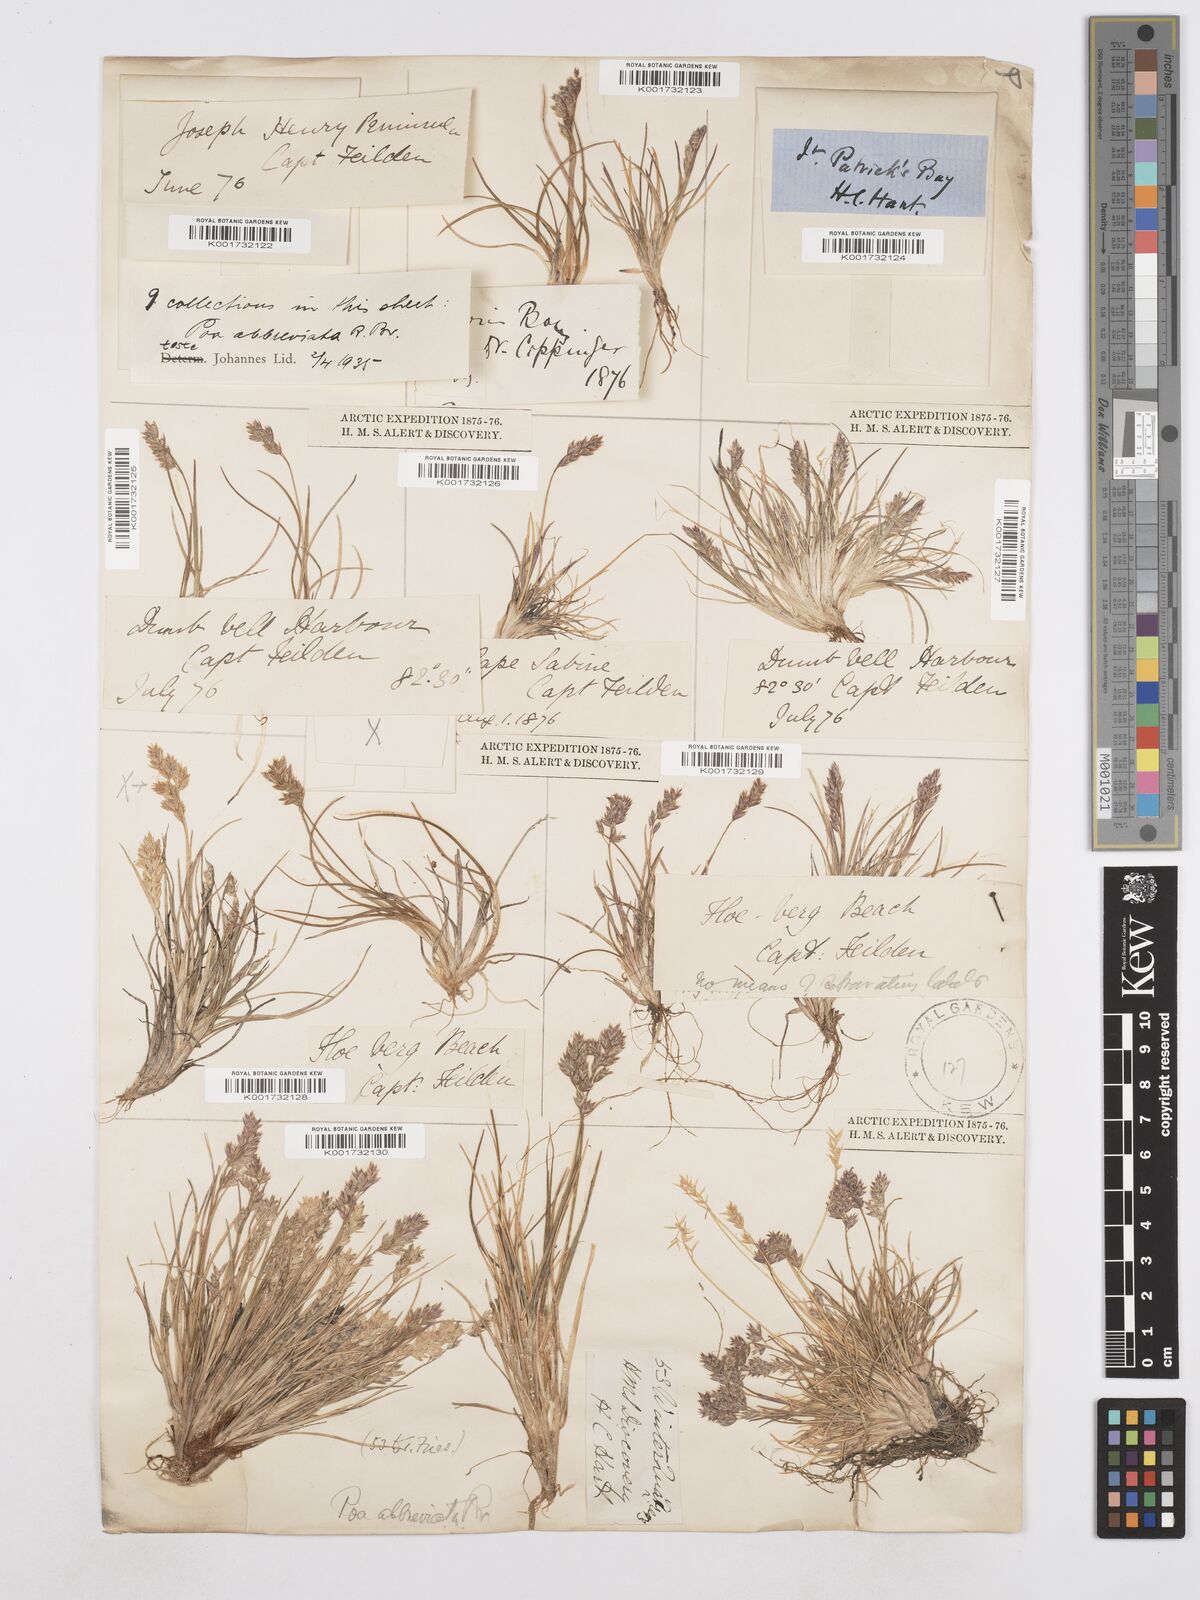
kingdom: Plantae
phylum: Tracheophyta
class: Liliopsida
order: Poales
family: Poaceae
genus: Poa
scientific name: Poa abbreviata
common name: Abbreviated bluegrass
